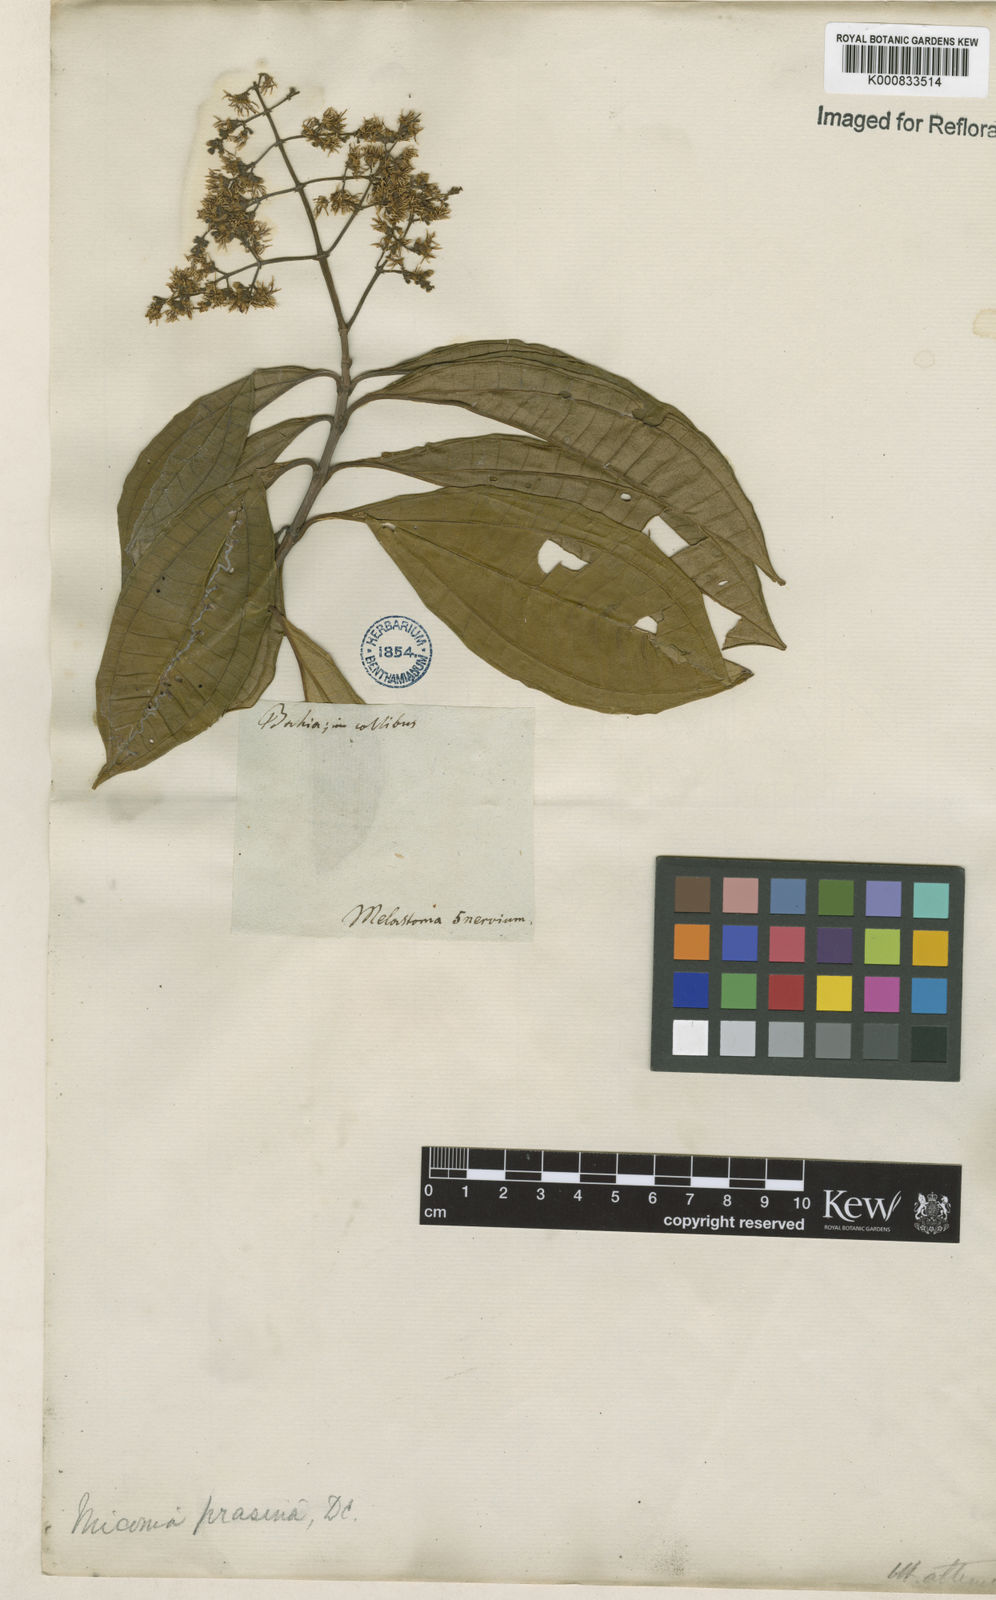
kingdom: Plantae
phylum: Tracheophyta
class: Magnoliopsida
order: Myrtales
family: Melastomataceae
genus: Miconia
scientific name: Miconia prasina
